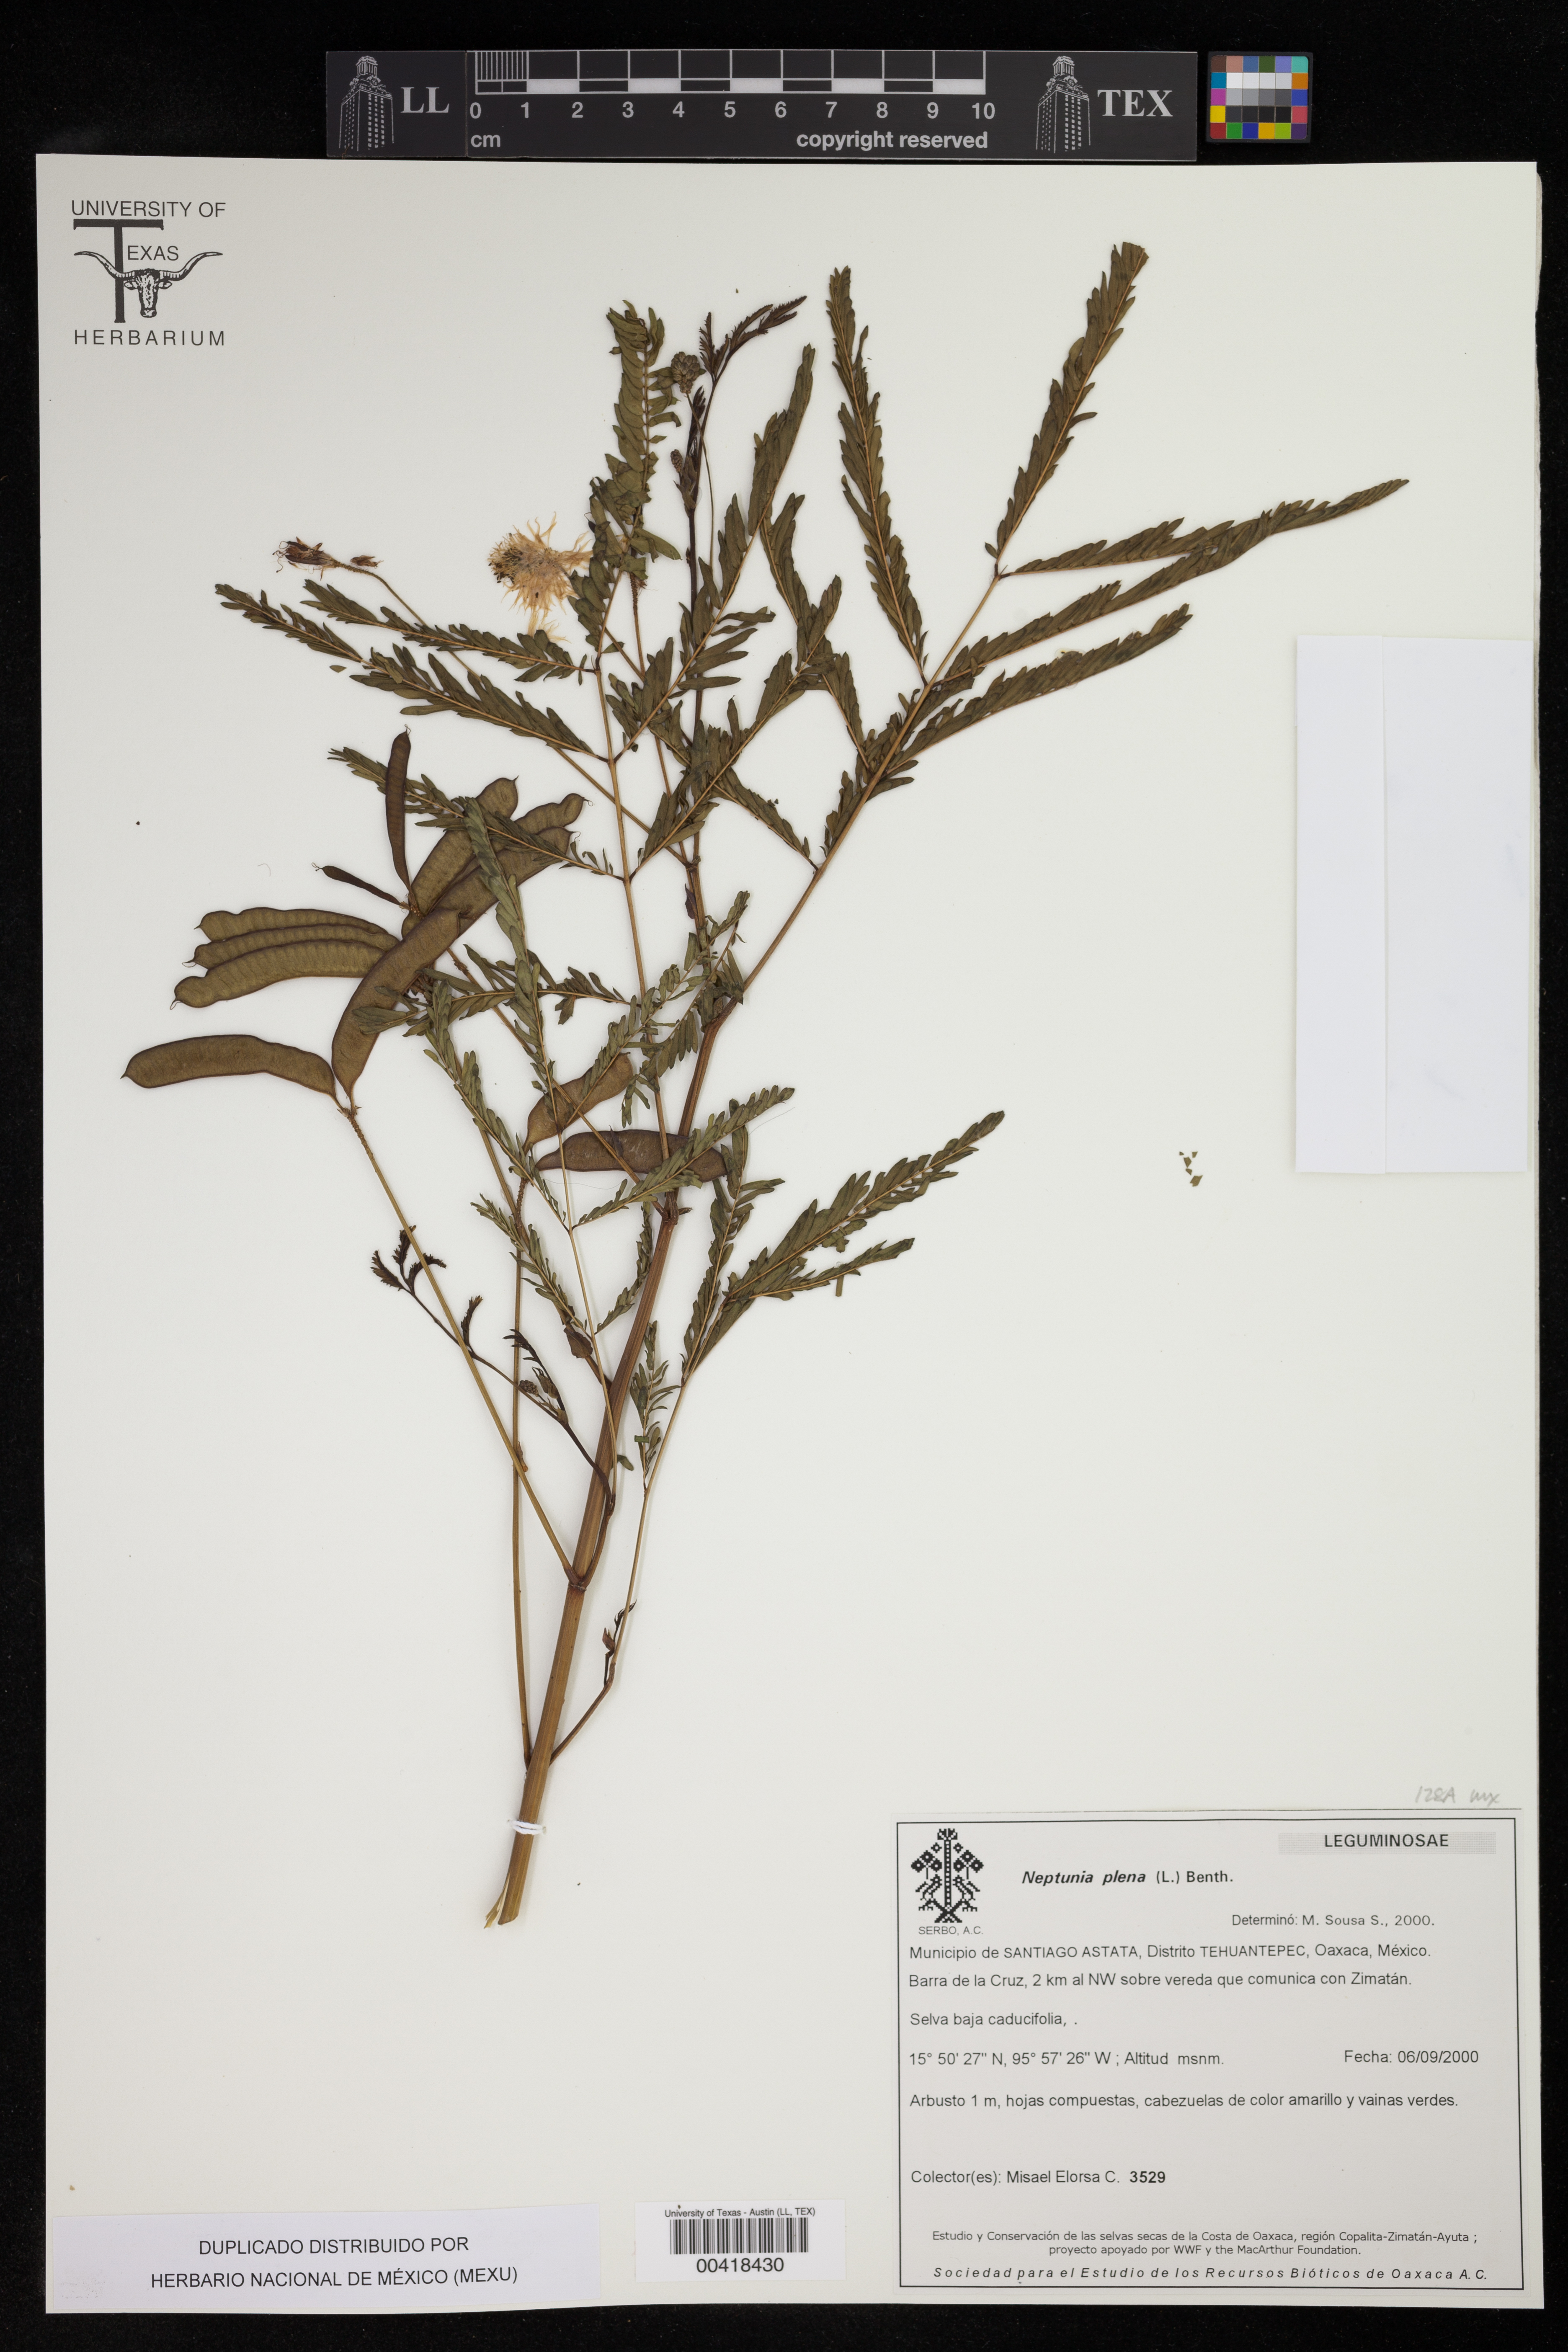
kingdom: Plantae
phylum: Tracheophyta
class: Magnoliopsida
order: Fabales
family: Fabaceae
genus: Neptunia
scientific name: Neptunia plena
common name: Dead and awake
